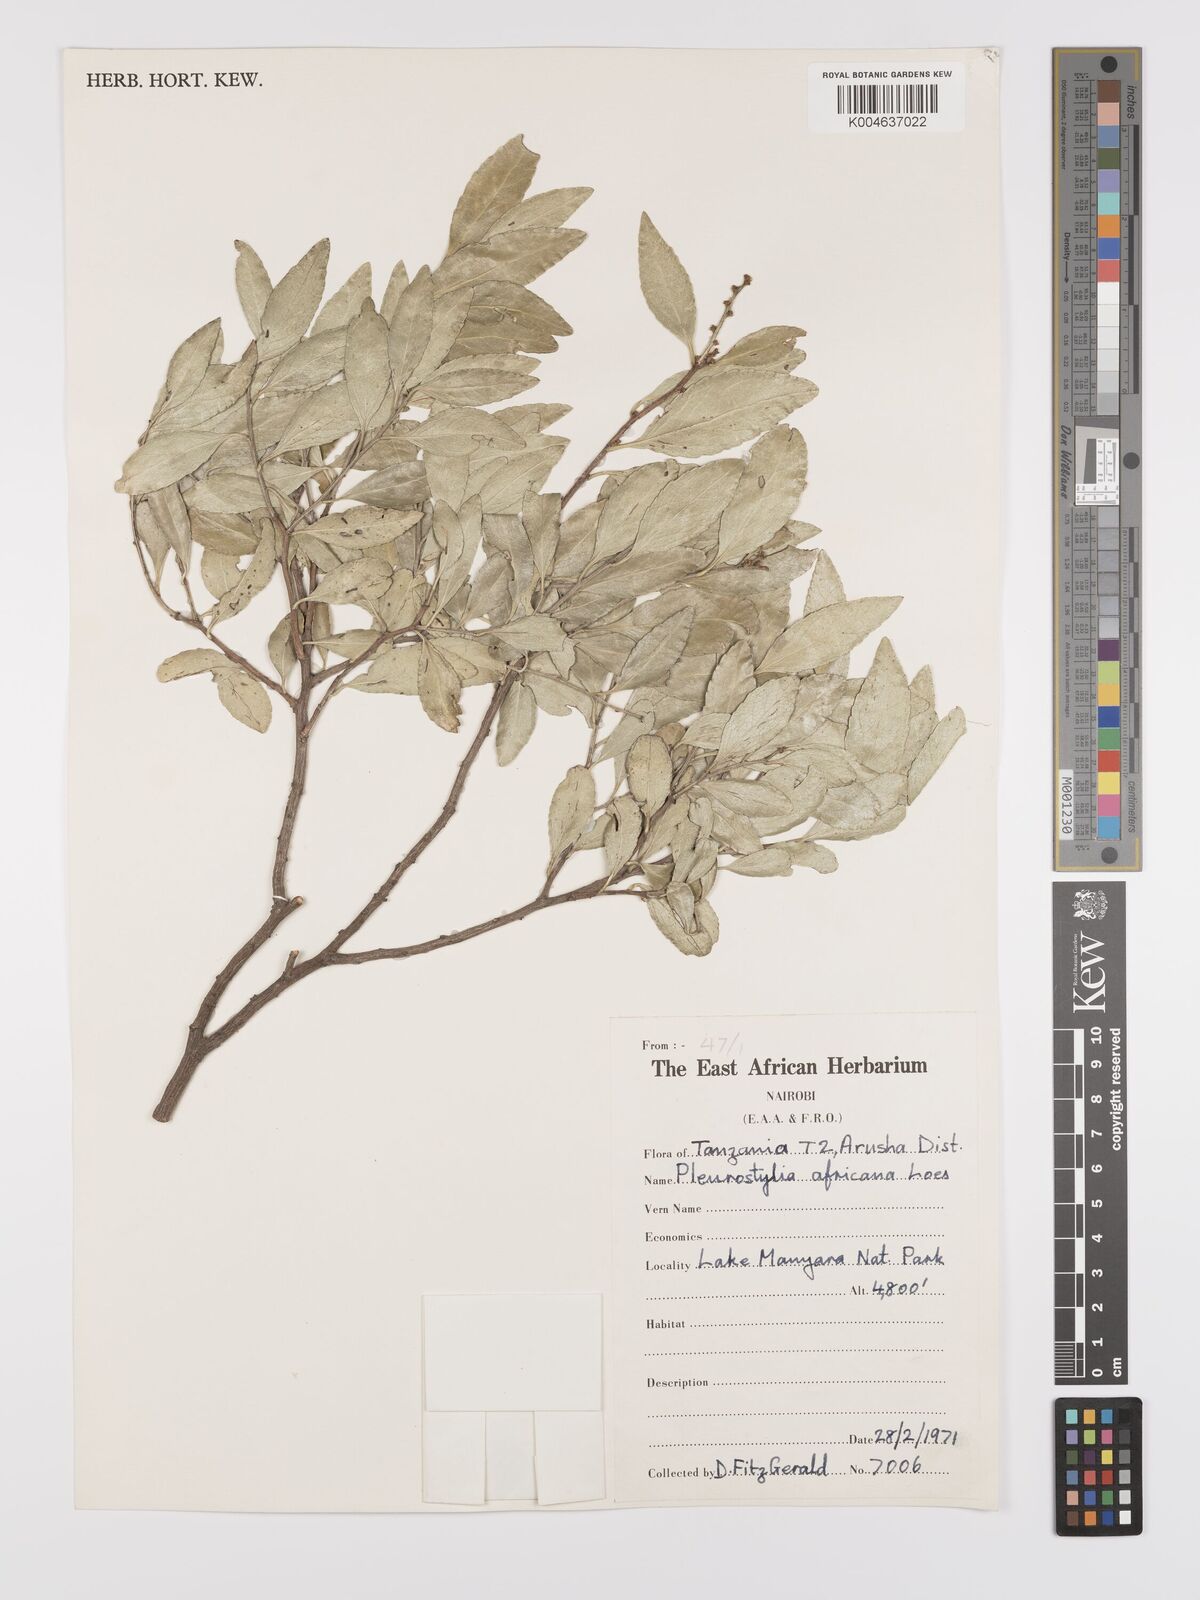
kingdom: Plantae
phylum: Tracheophyta
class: Magnoliopsida
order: Celastrales
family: Celastraceae
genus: Gymnosporia
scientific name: Gymnosporia undata
